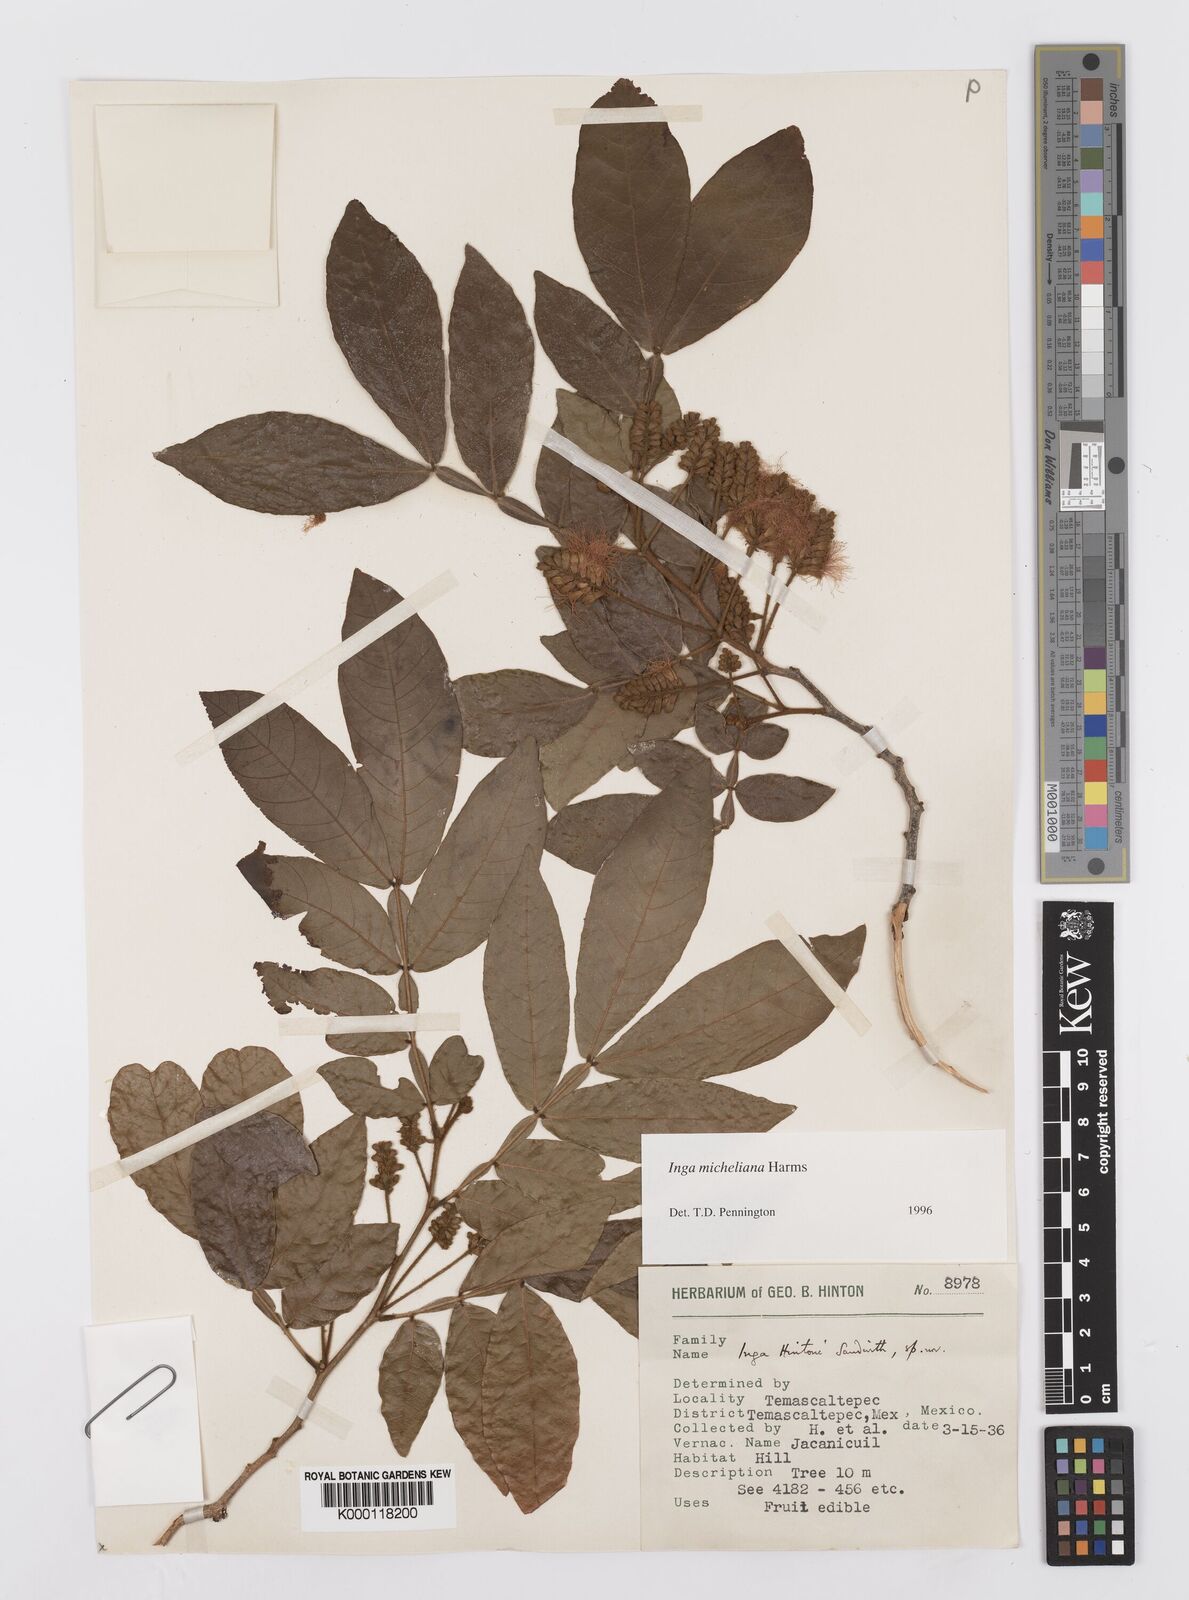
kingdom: Plantae
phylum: Tracheophyta
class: Magnoliopsida
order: Fabales
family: Fabaceae
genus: Inga
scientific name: Inga flexuosa
